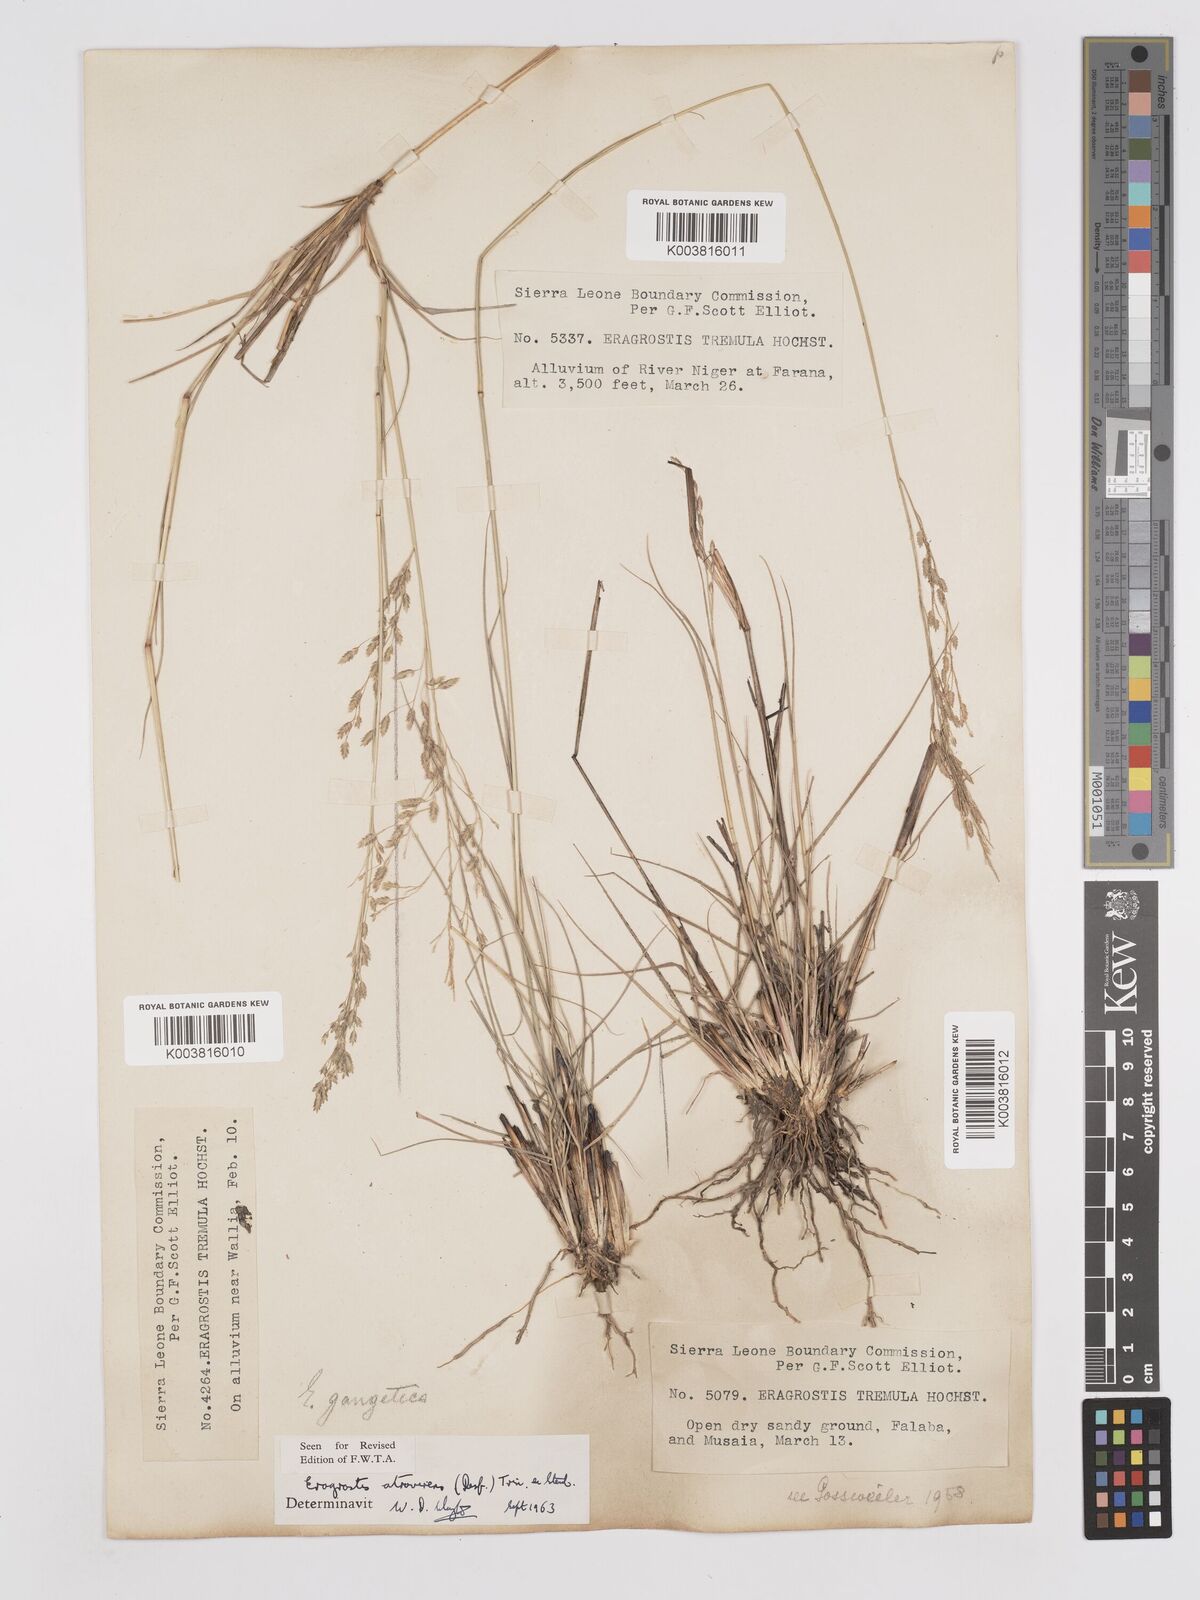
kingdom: Plantae
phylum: Tracheophyta
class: Liliopsida
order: Poales
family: Poaceae
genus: Eragrostis
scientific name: Eragrostis atrovirens
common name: Thalia lovegrass
